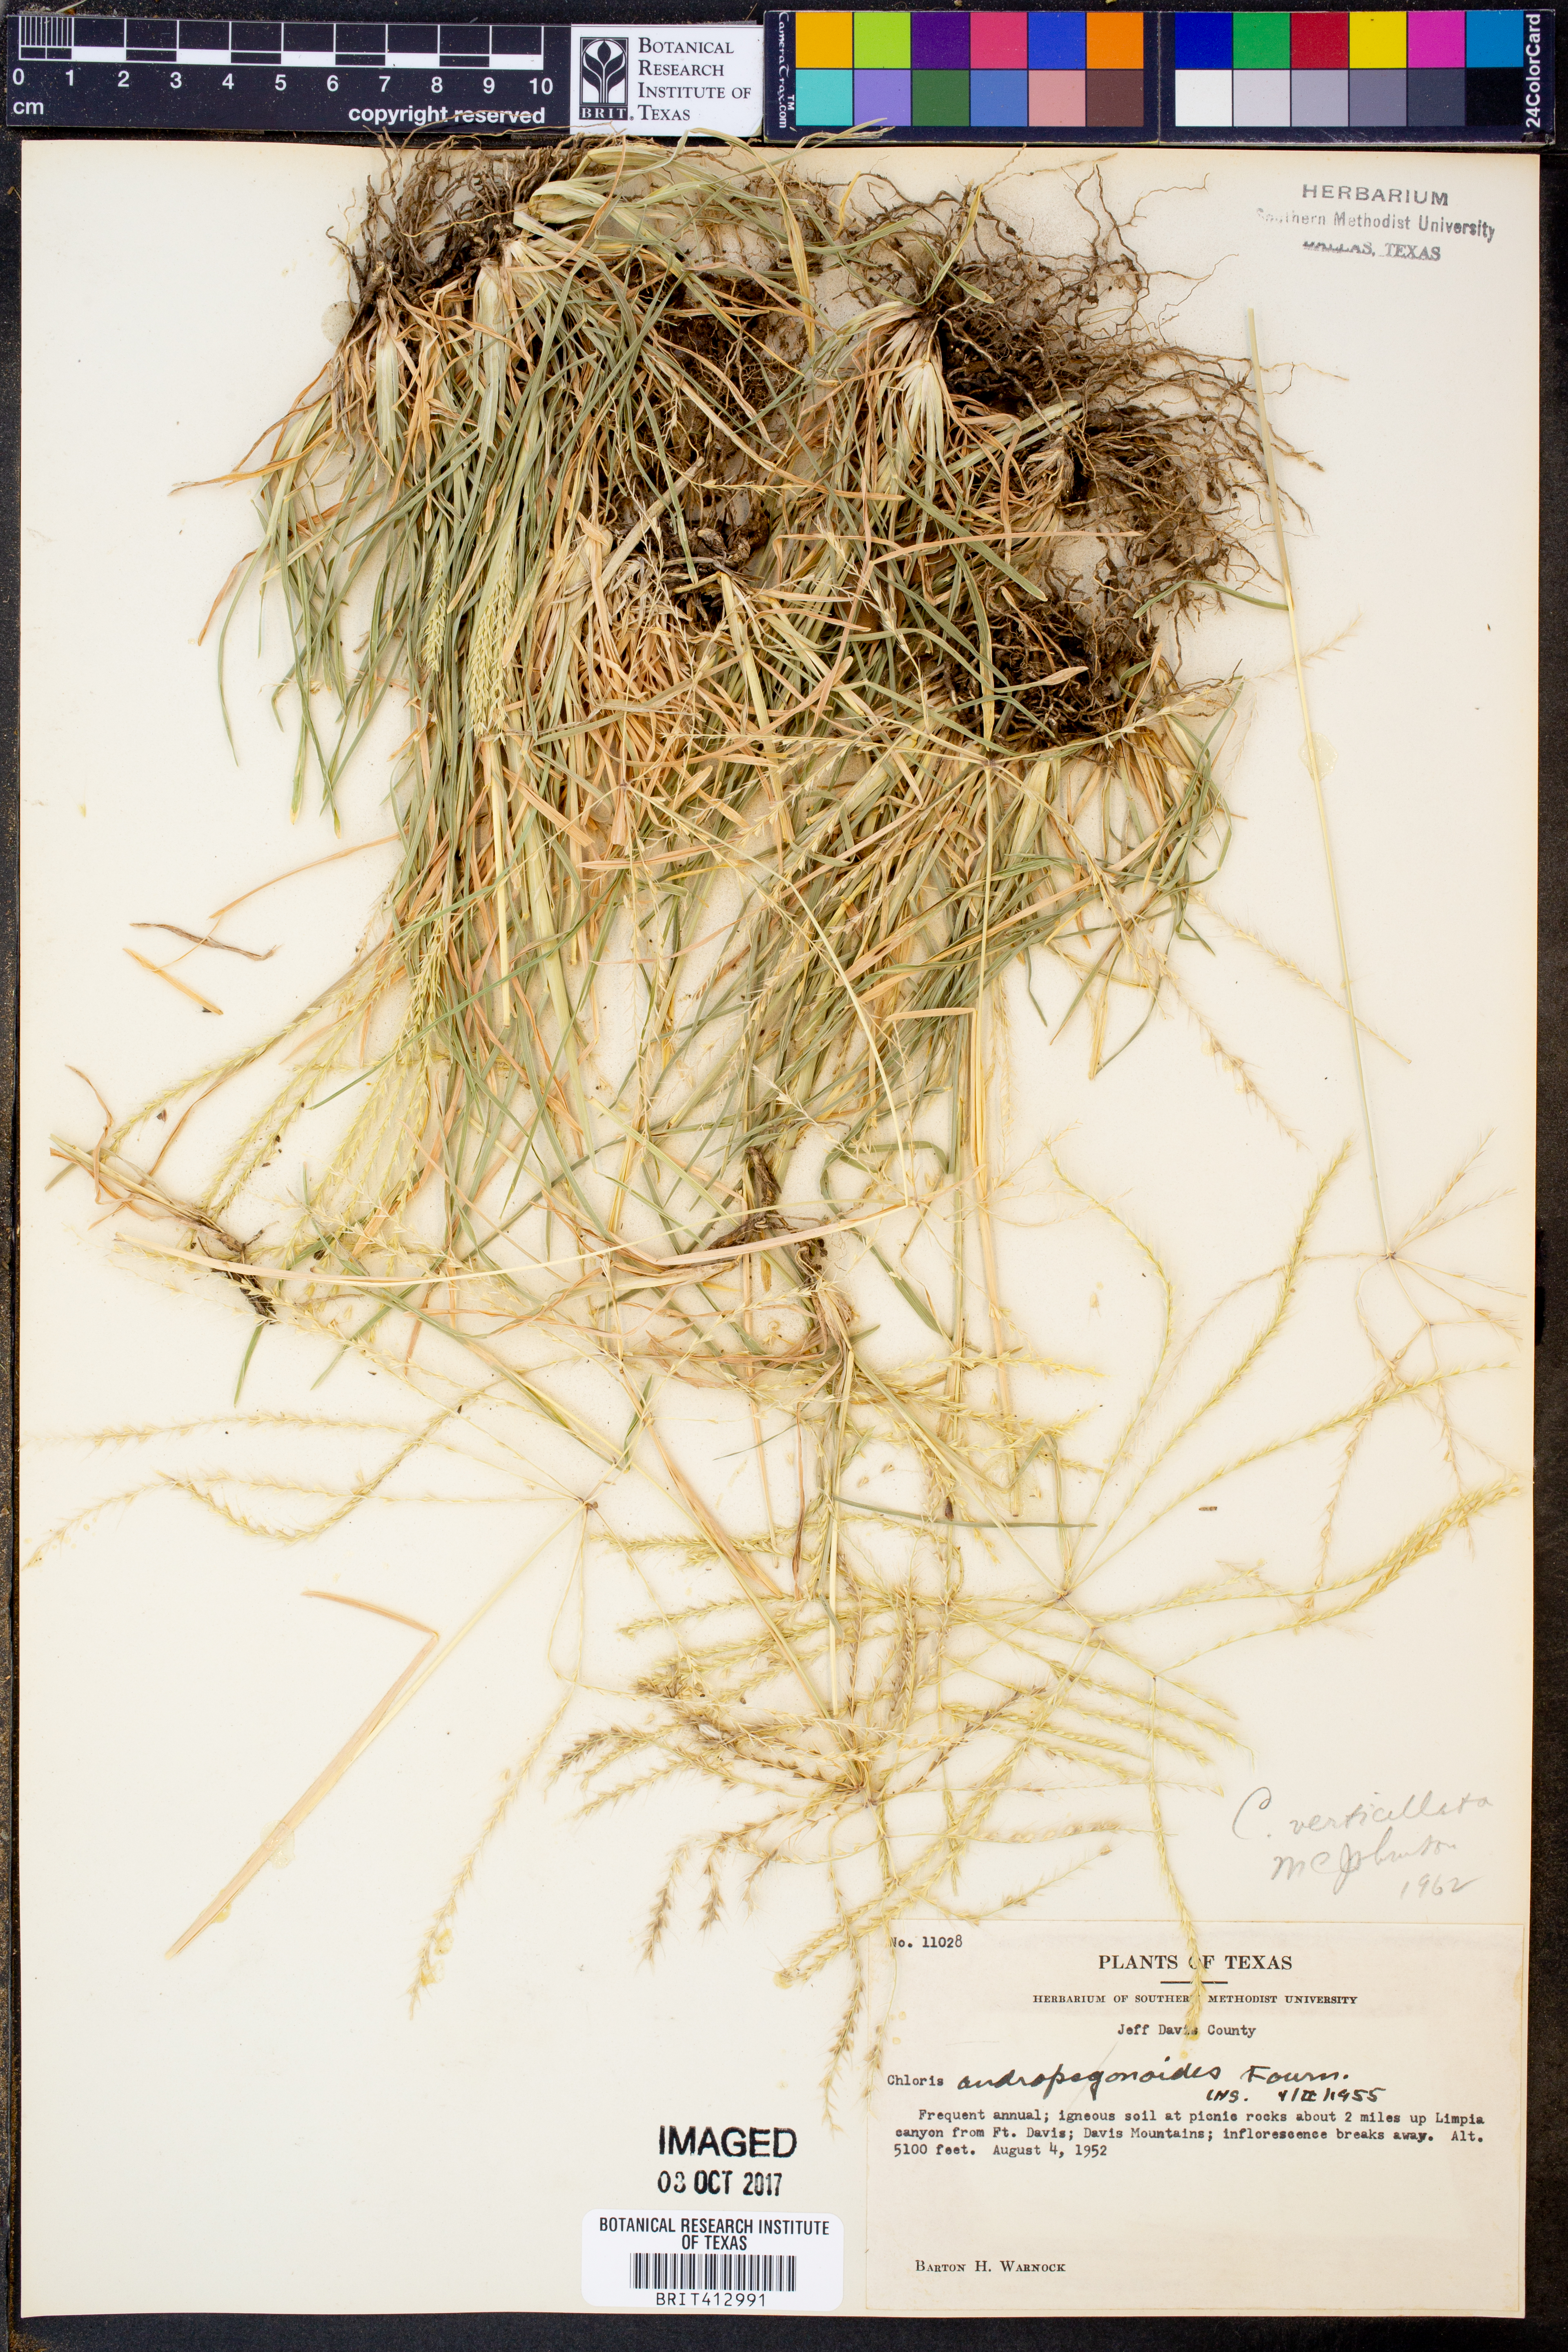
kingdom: Plantae
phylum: Tracheophyta
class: Liliopsida
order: Poales
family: Poaceae
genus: Chloris
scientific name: Chloris andropogonoides
